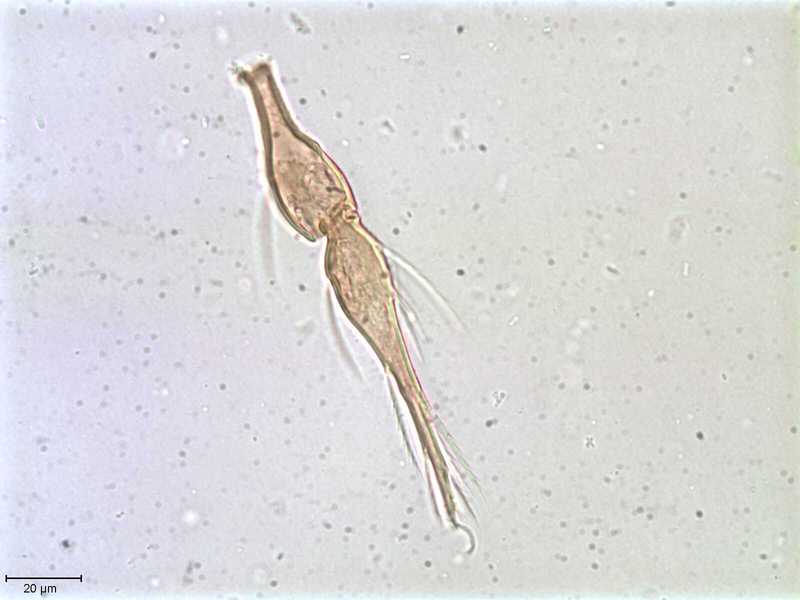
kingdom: Animalia
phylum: Arthropoda
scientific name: Arthropoda
